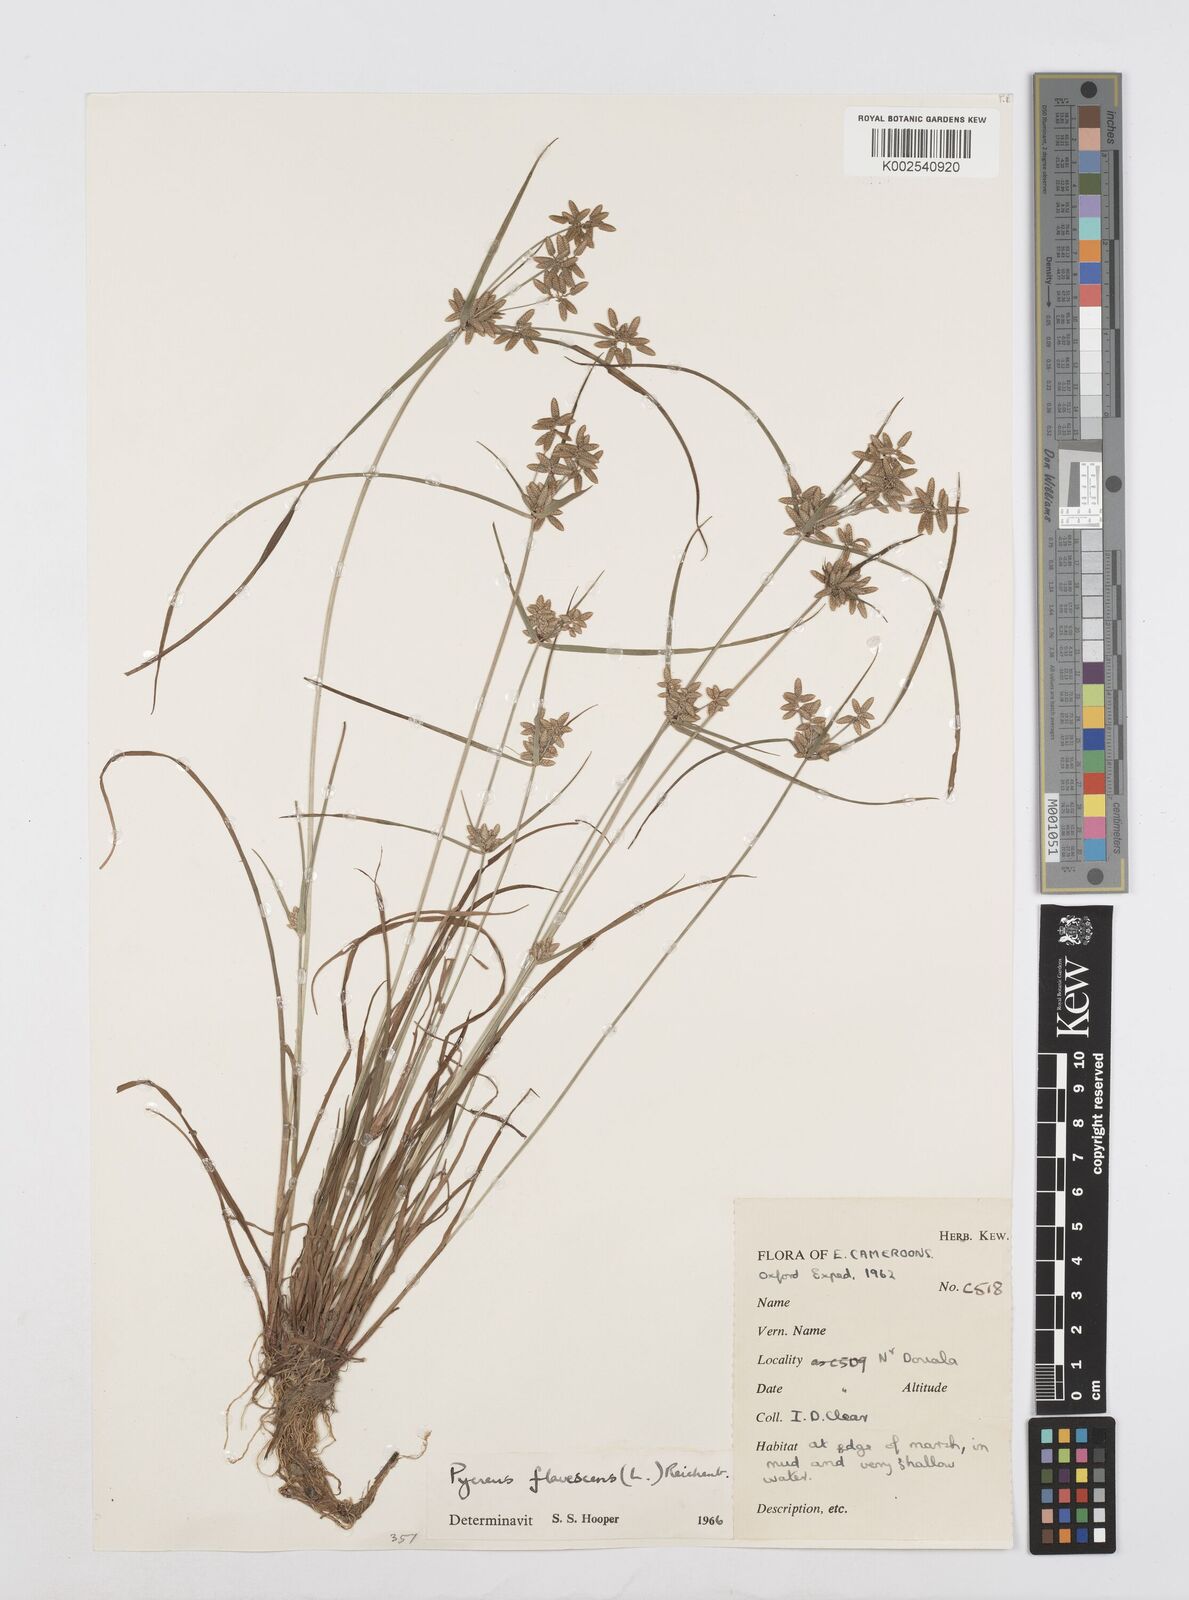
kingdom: Plantae
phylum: Tracheophyta
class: Liliopsida
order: Poales
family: Cyperaceae
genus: Cyperus
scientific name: Cyperus flavescens
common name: Yellow galingale
